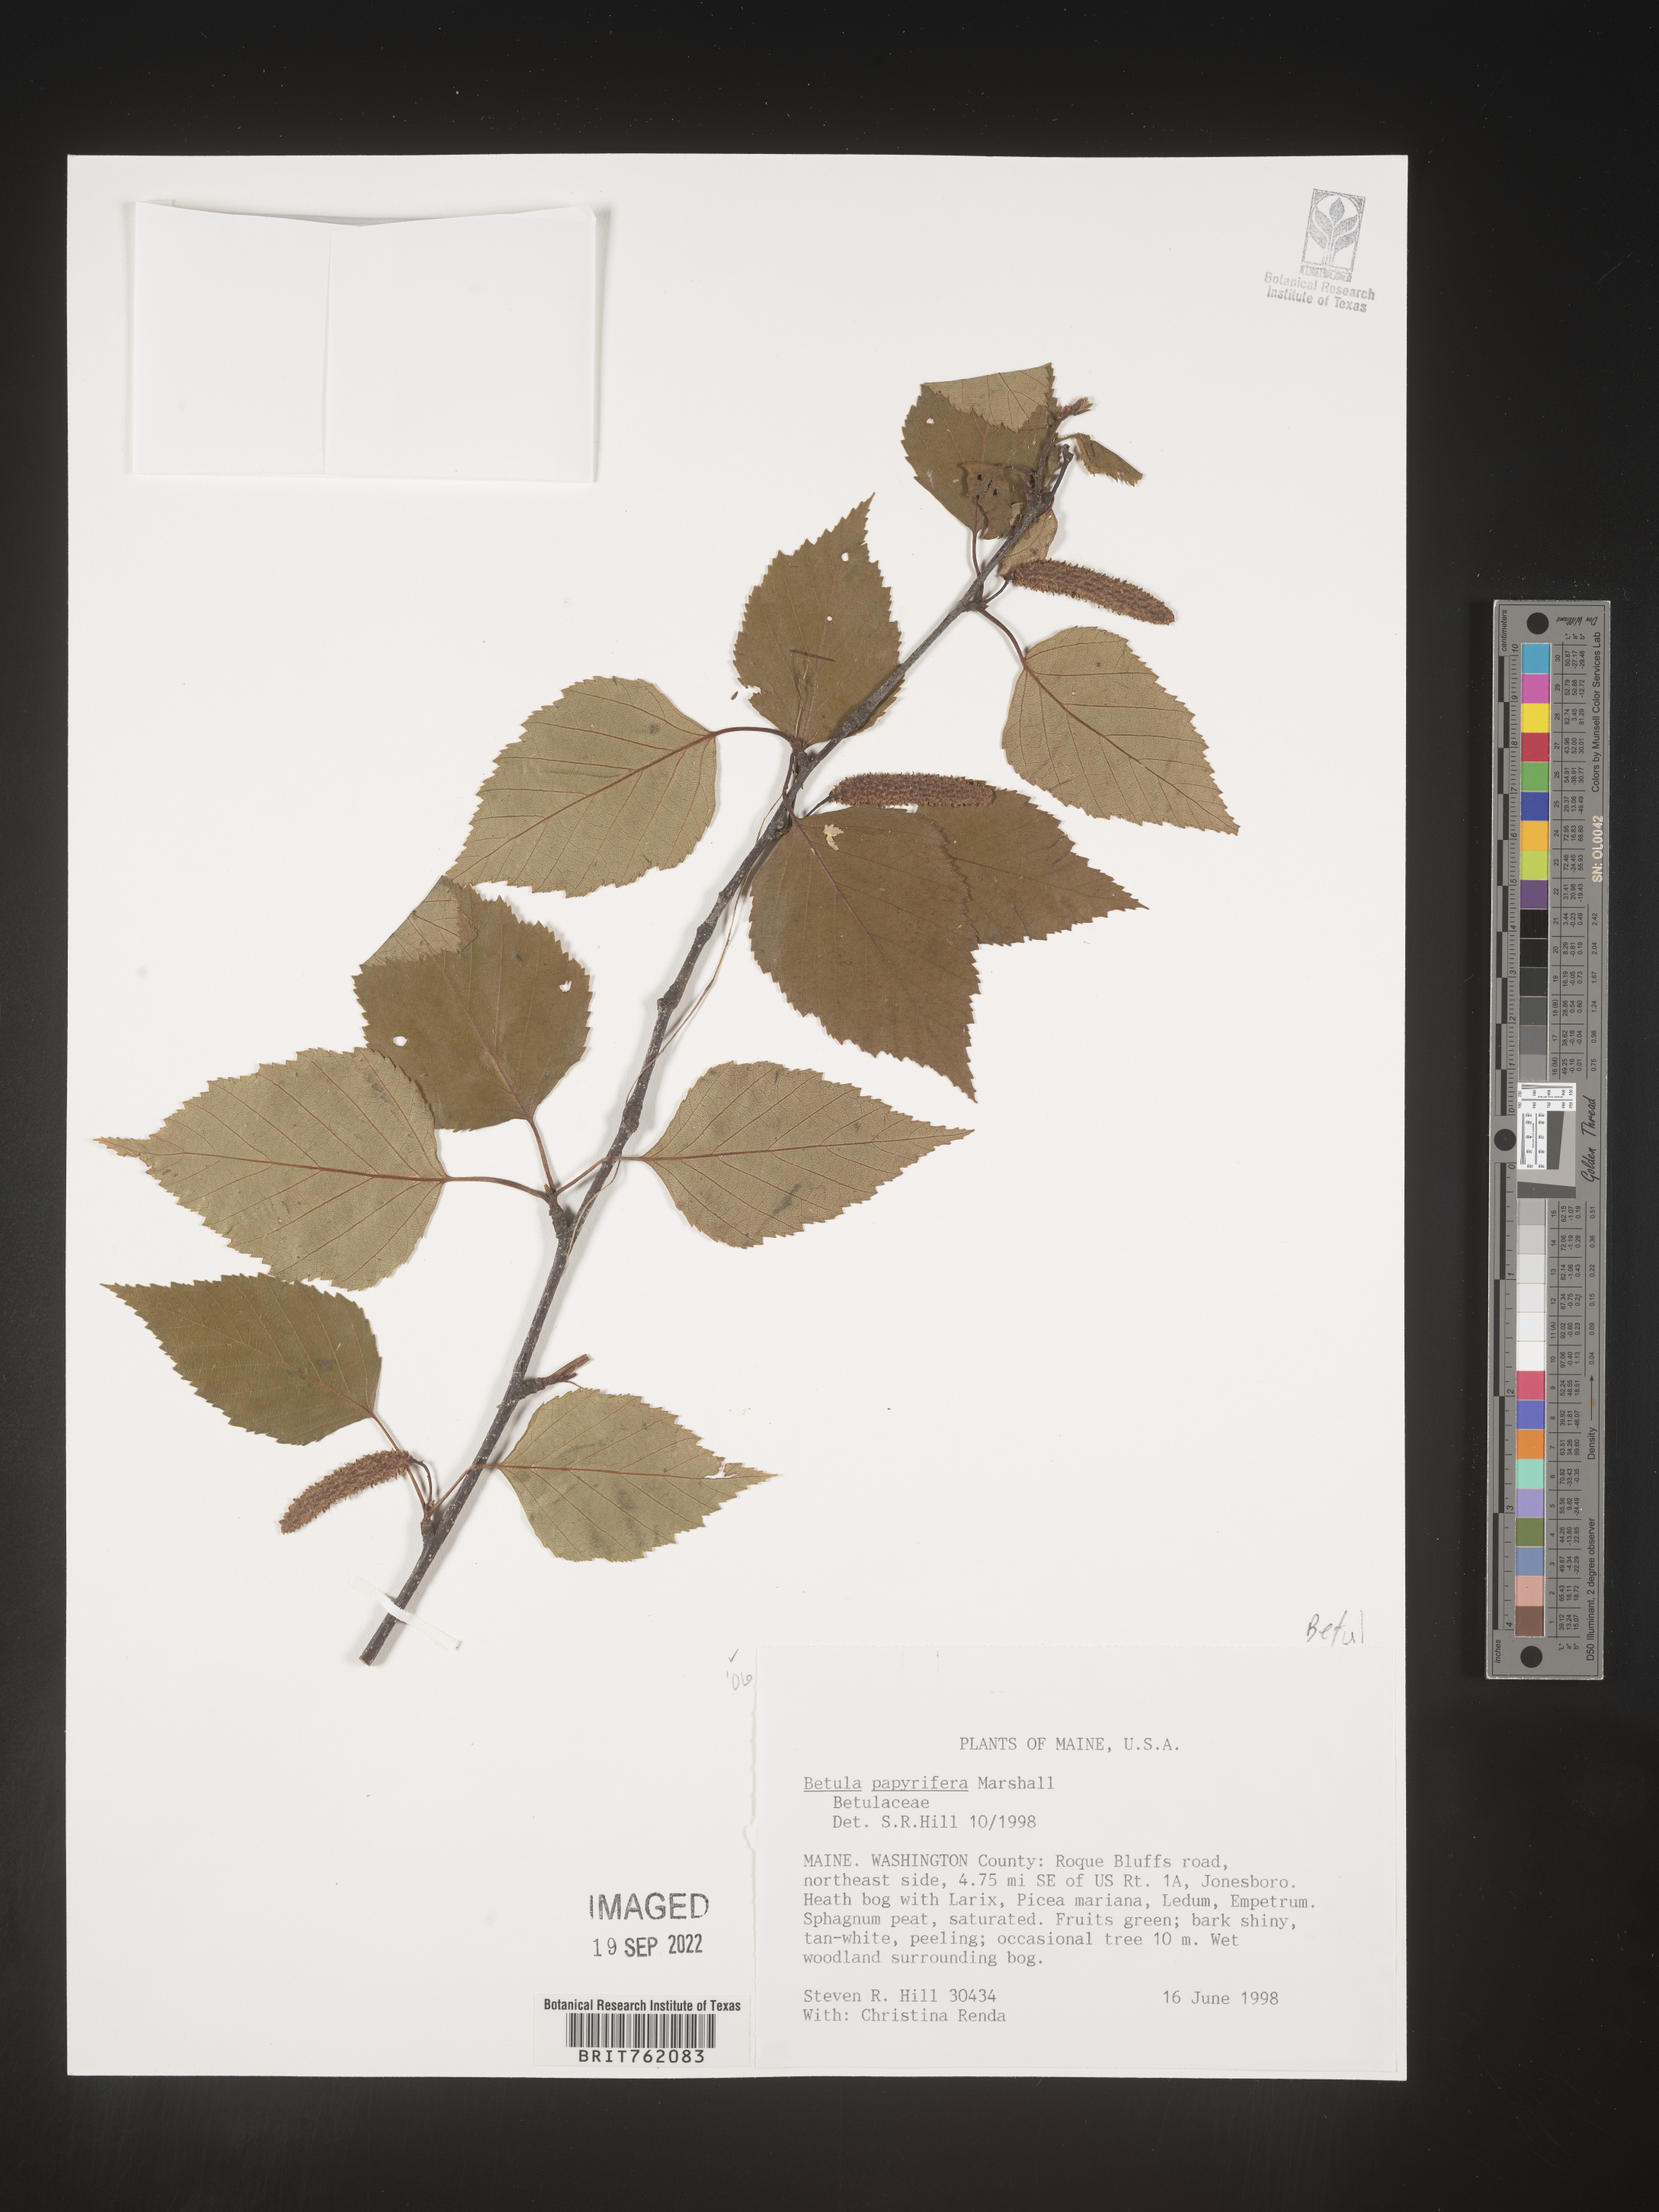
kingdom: Plantae
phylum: Tracheophyta
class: Magnoliopsida
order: Fagales
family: Betulaceae
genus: Betula
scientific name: Betula papyrifera
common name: Paper birch
